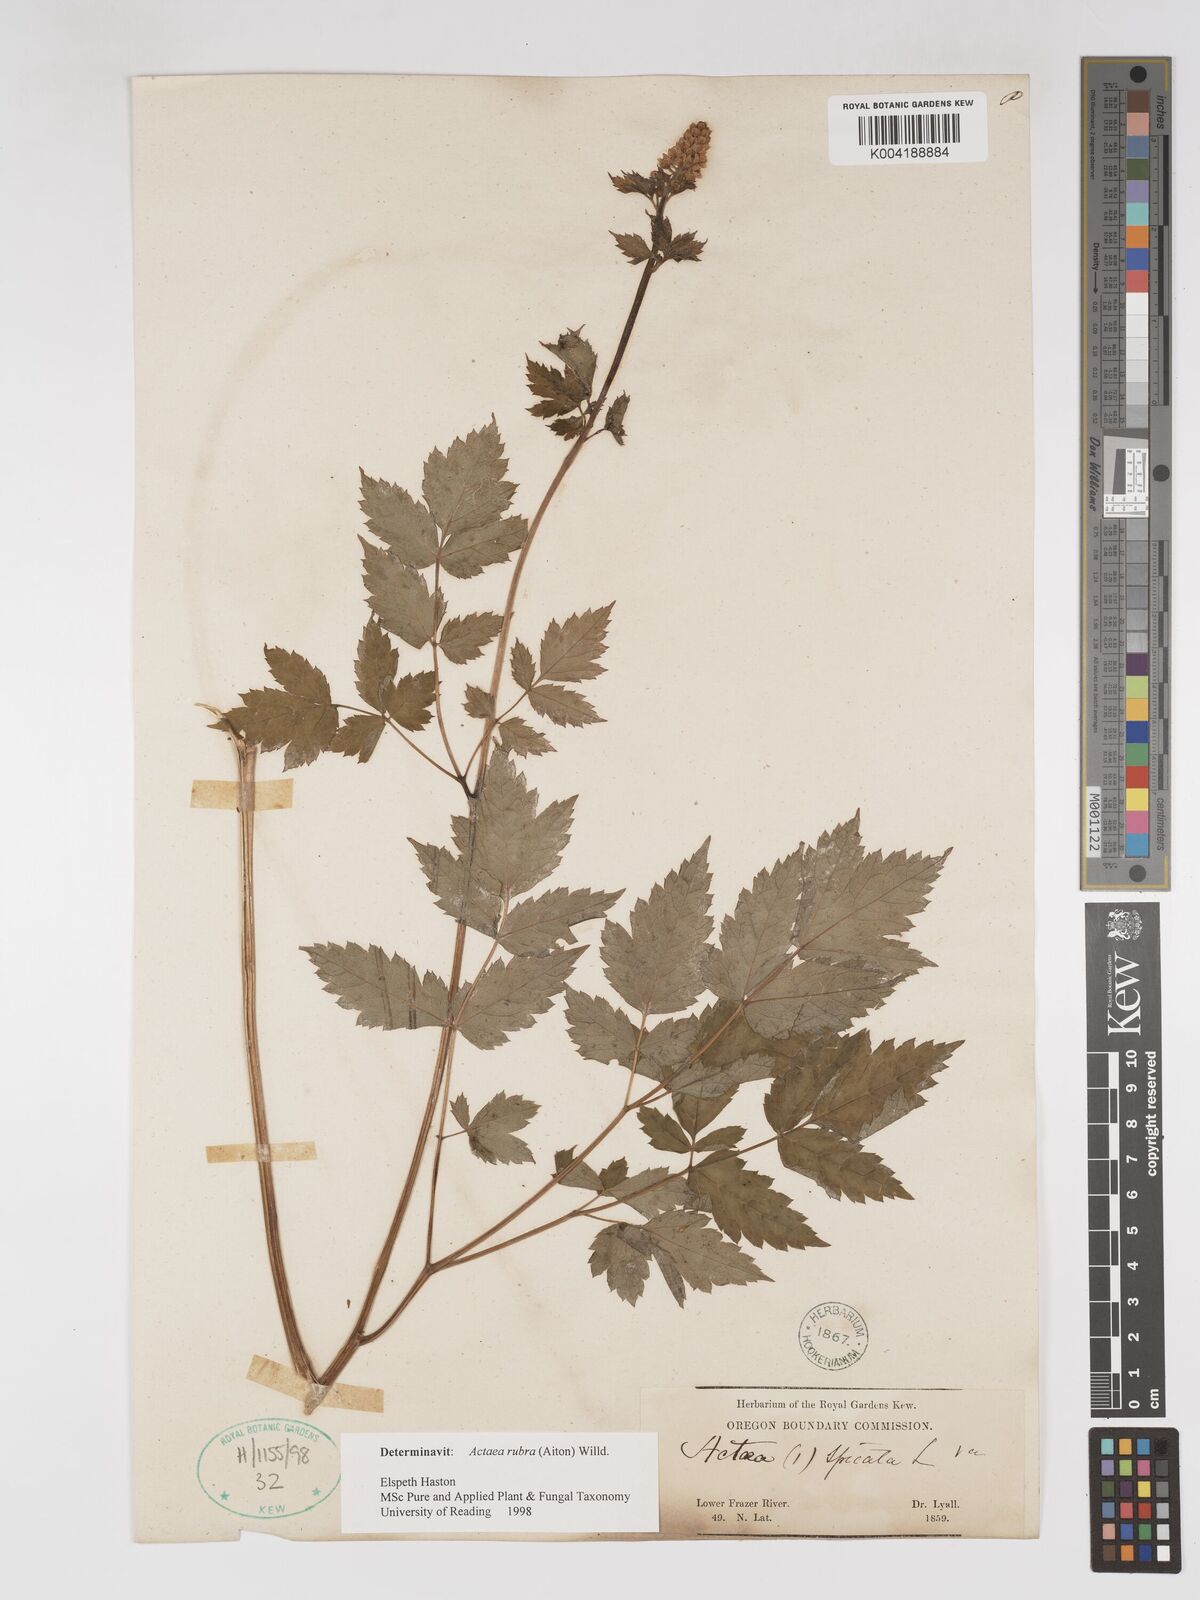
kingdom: Plantae
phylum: Tracheophyta
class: Magnoliopsida
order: Ranunculales
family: Ranunculaceae
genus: Actaea
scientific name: Actaea spicata
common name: Baneberry
